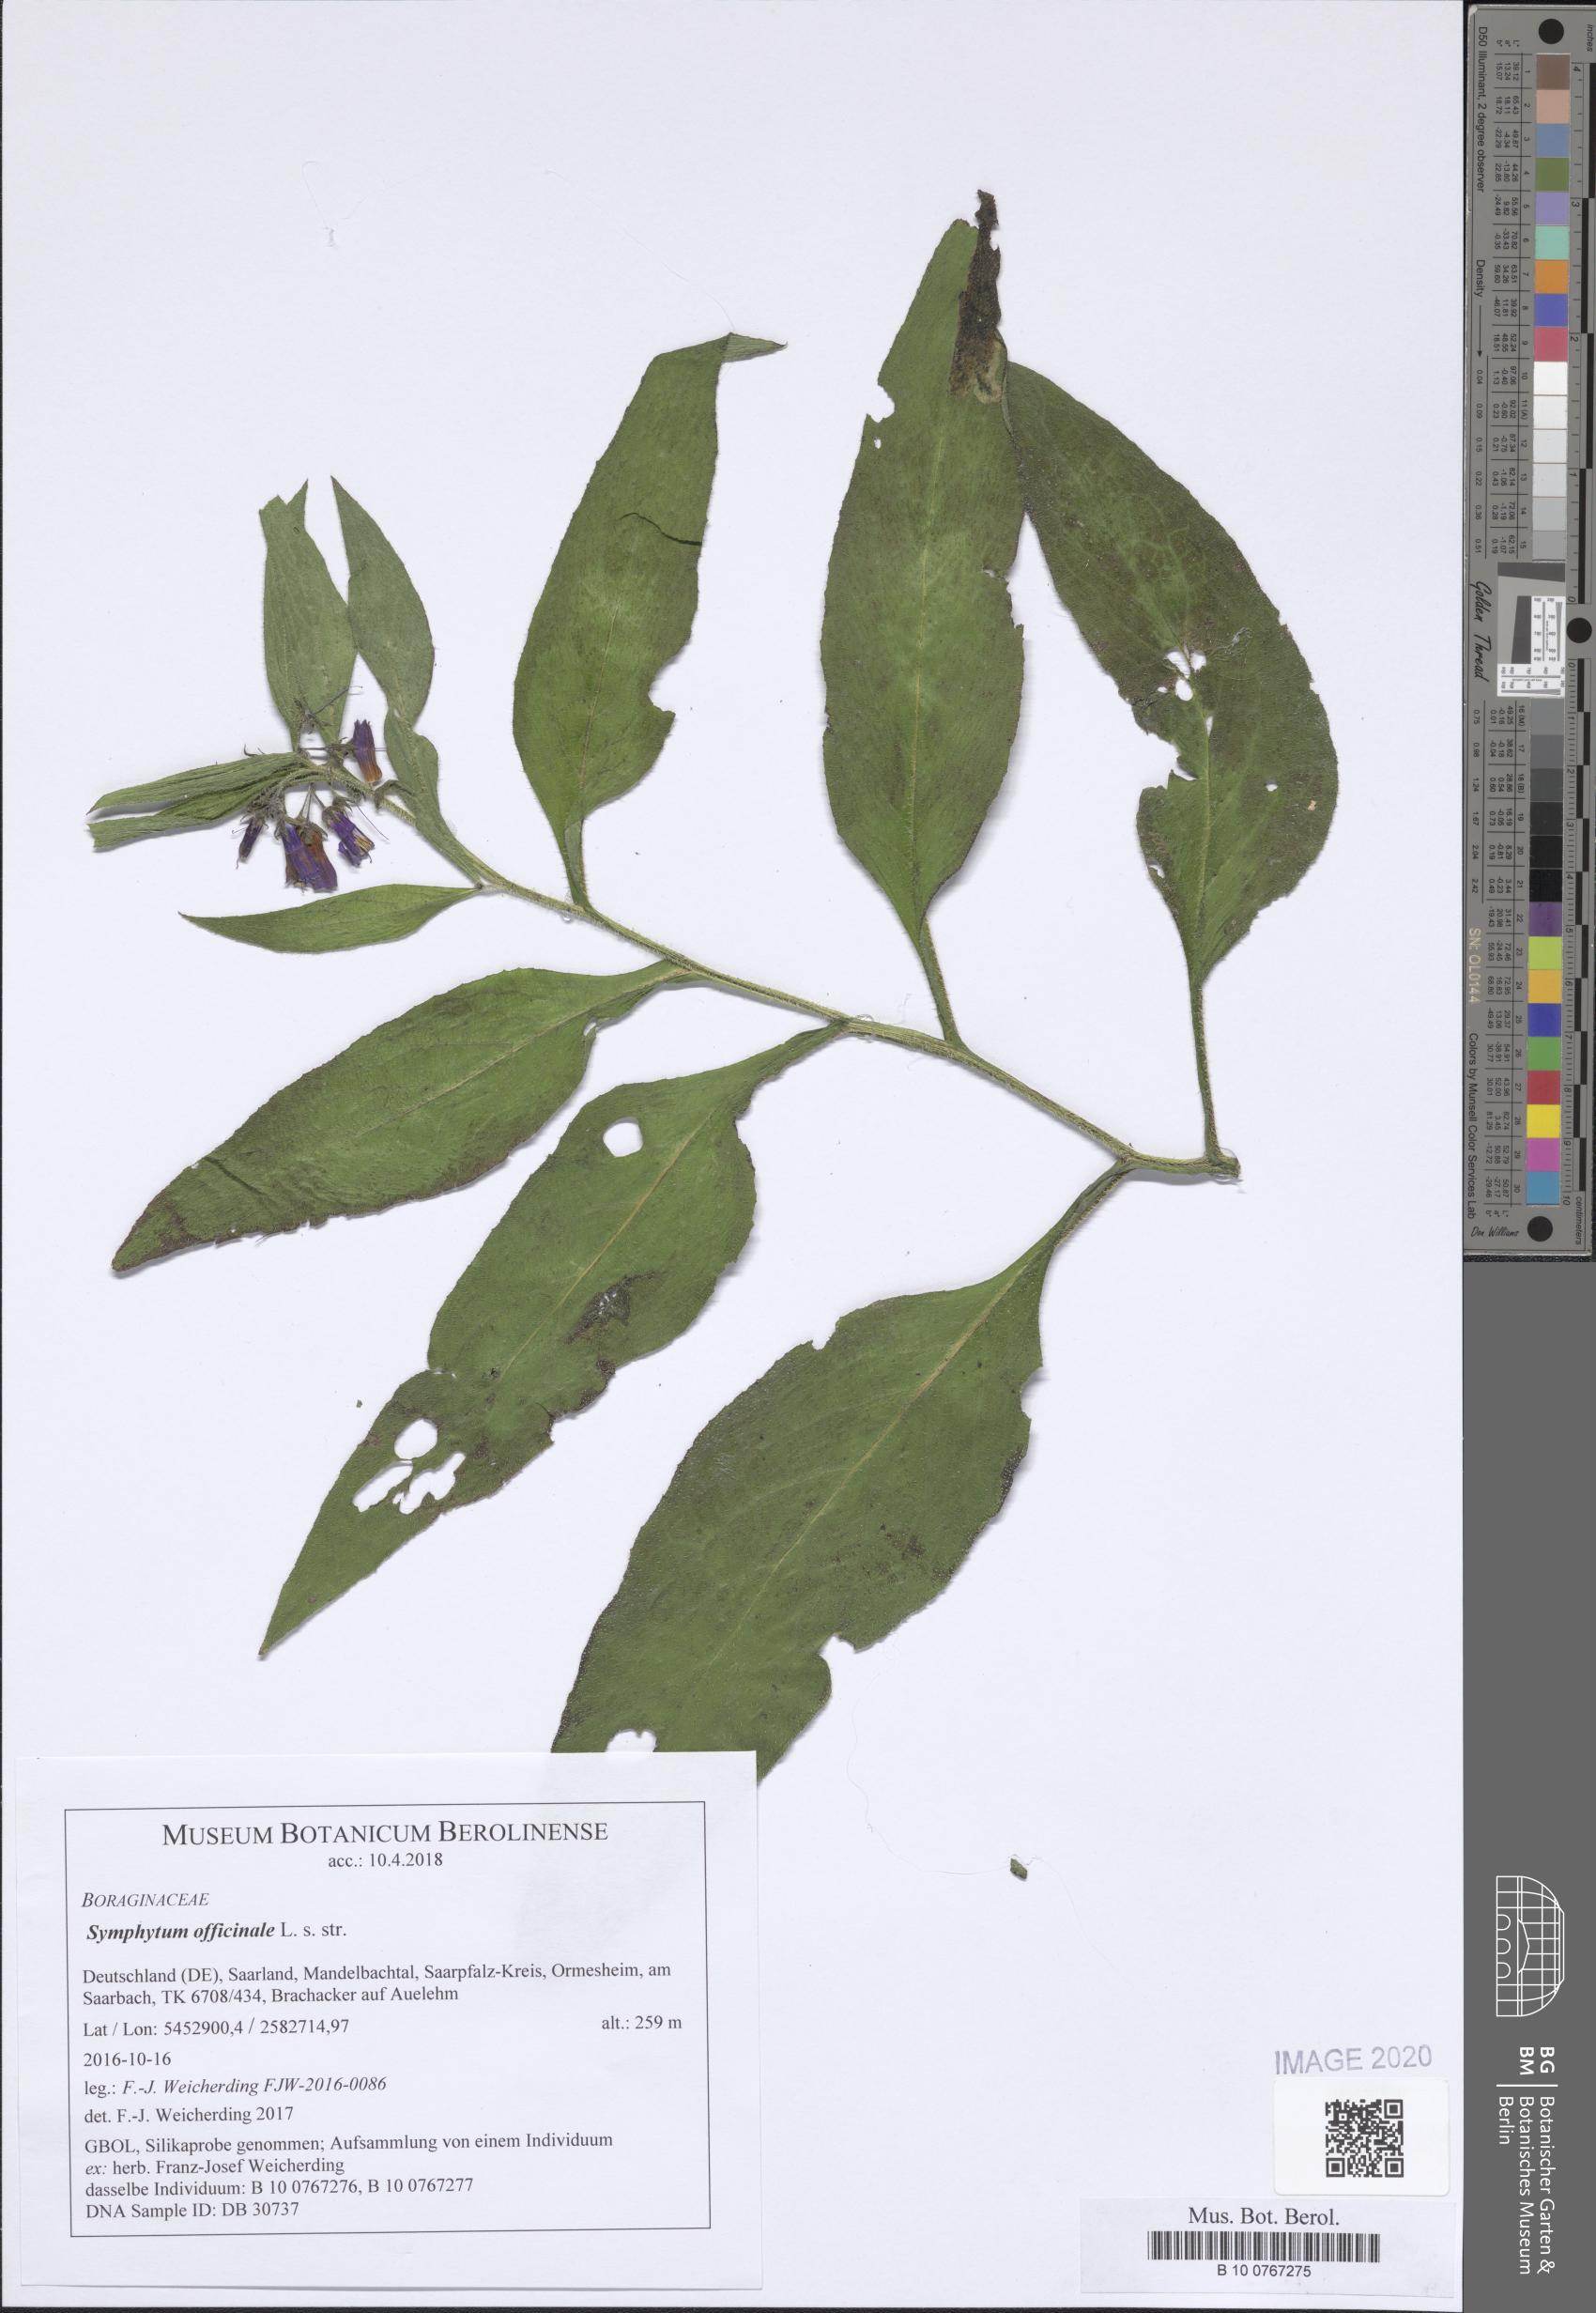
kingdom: Plantae
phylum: Tracheophyta
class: Magnoliopsida
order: Boraginales
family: Boraginaceae
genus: Symphytum
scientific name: Symphytum officinale
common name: Common comfrey
